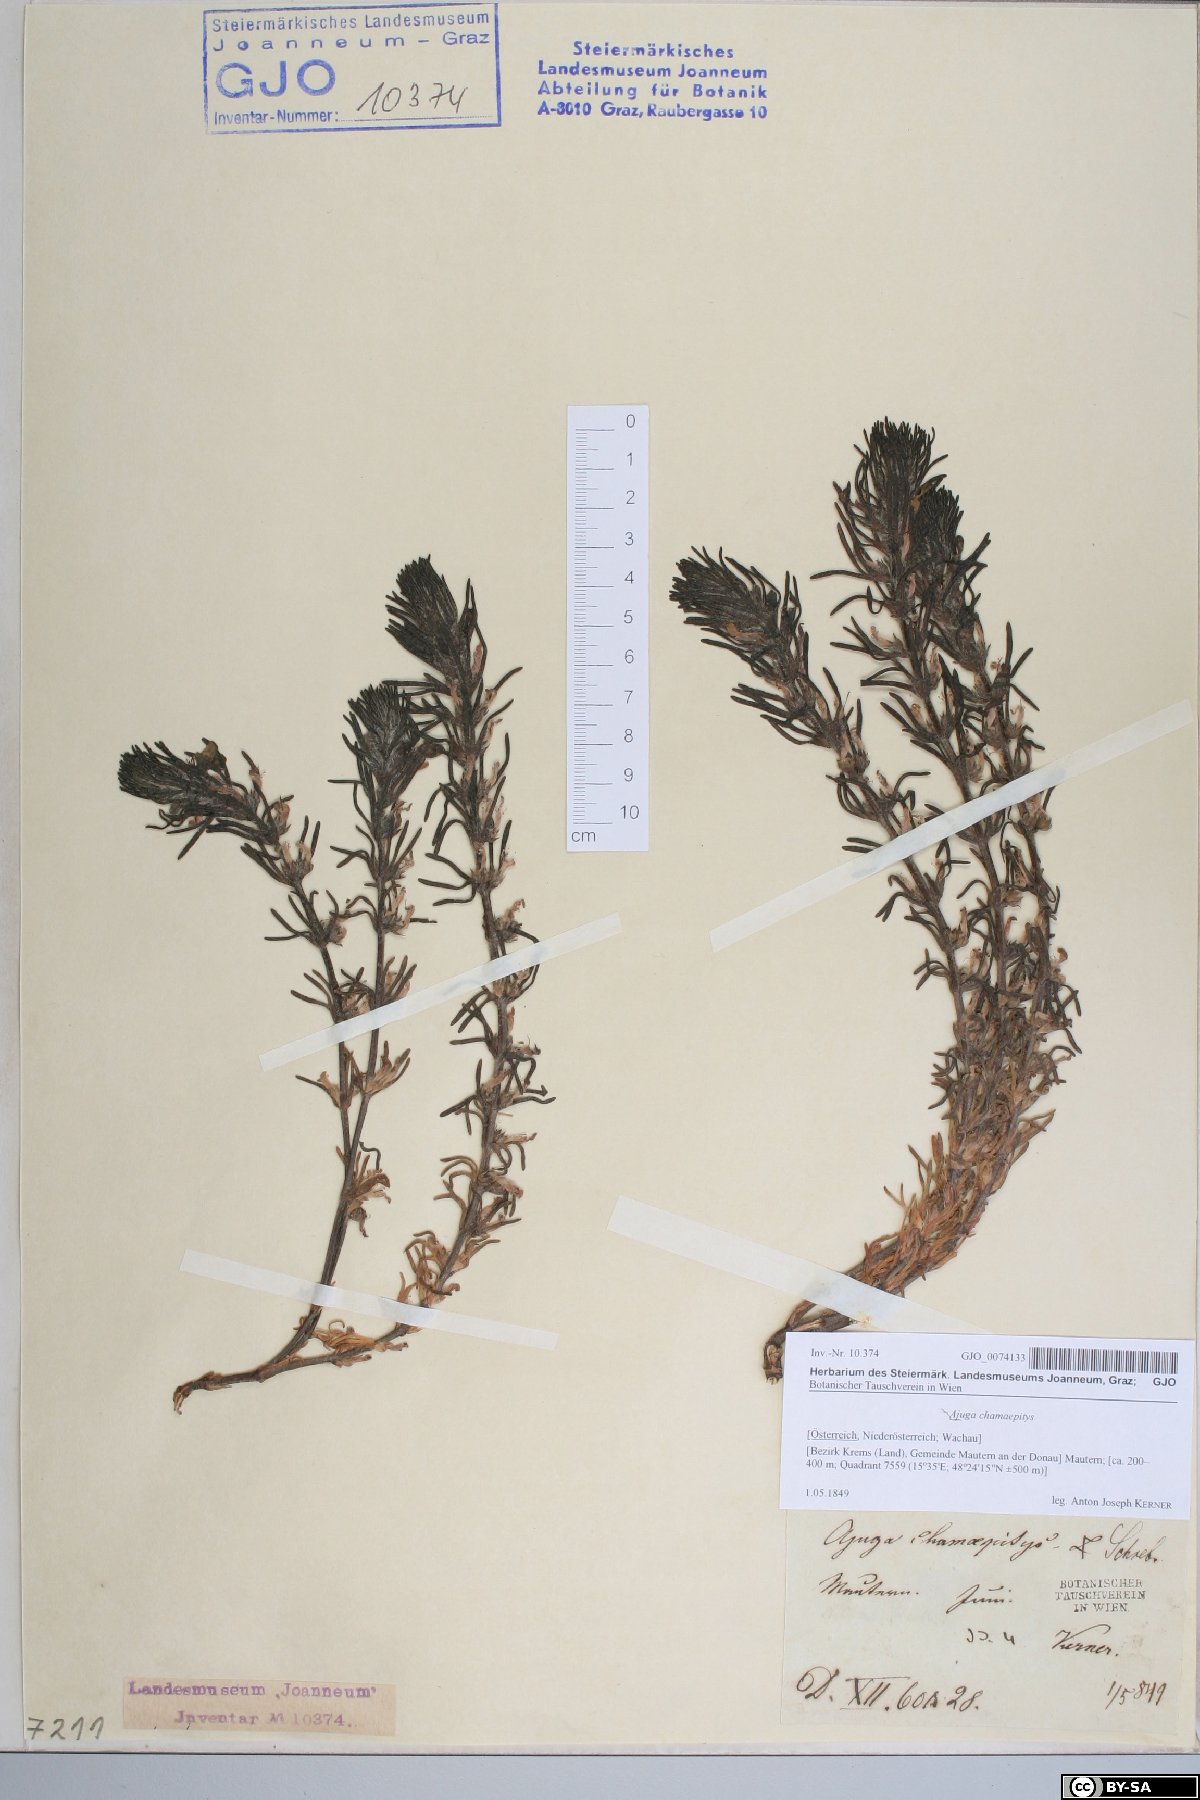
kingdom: Plantae
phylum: Tracheophyta
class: Magnoliopsida
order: Lamiales
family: Lamiaceae
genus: Ajuga
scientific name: Ajuga chamaepitys
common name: Ground-pine
